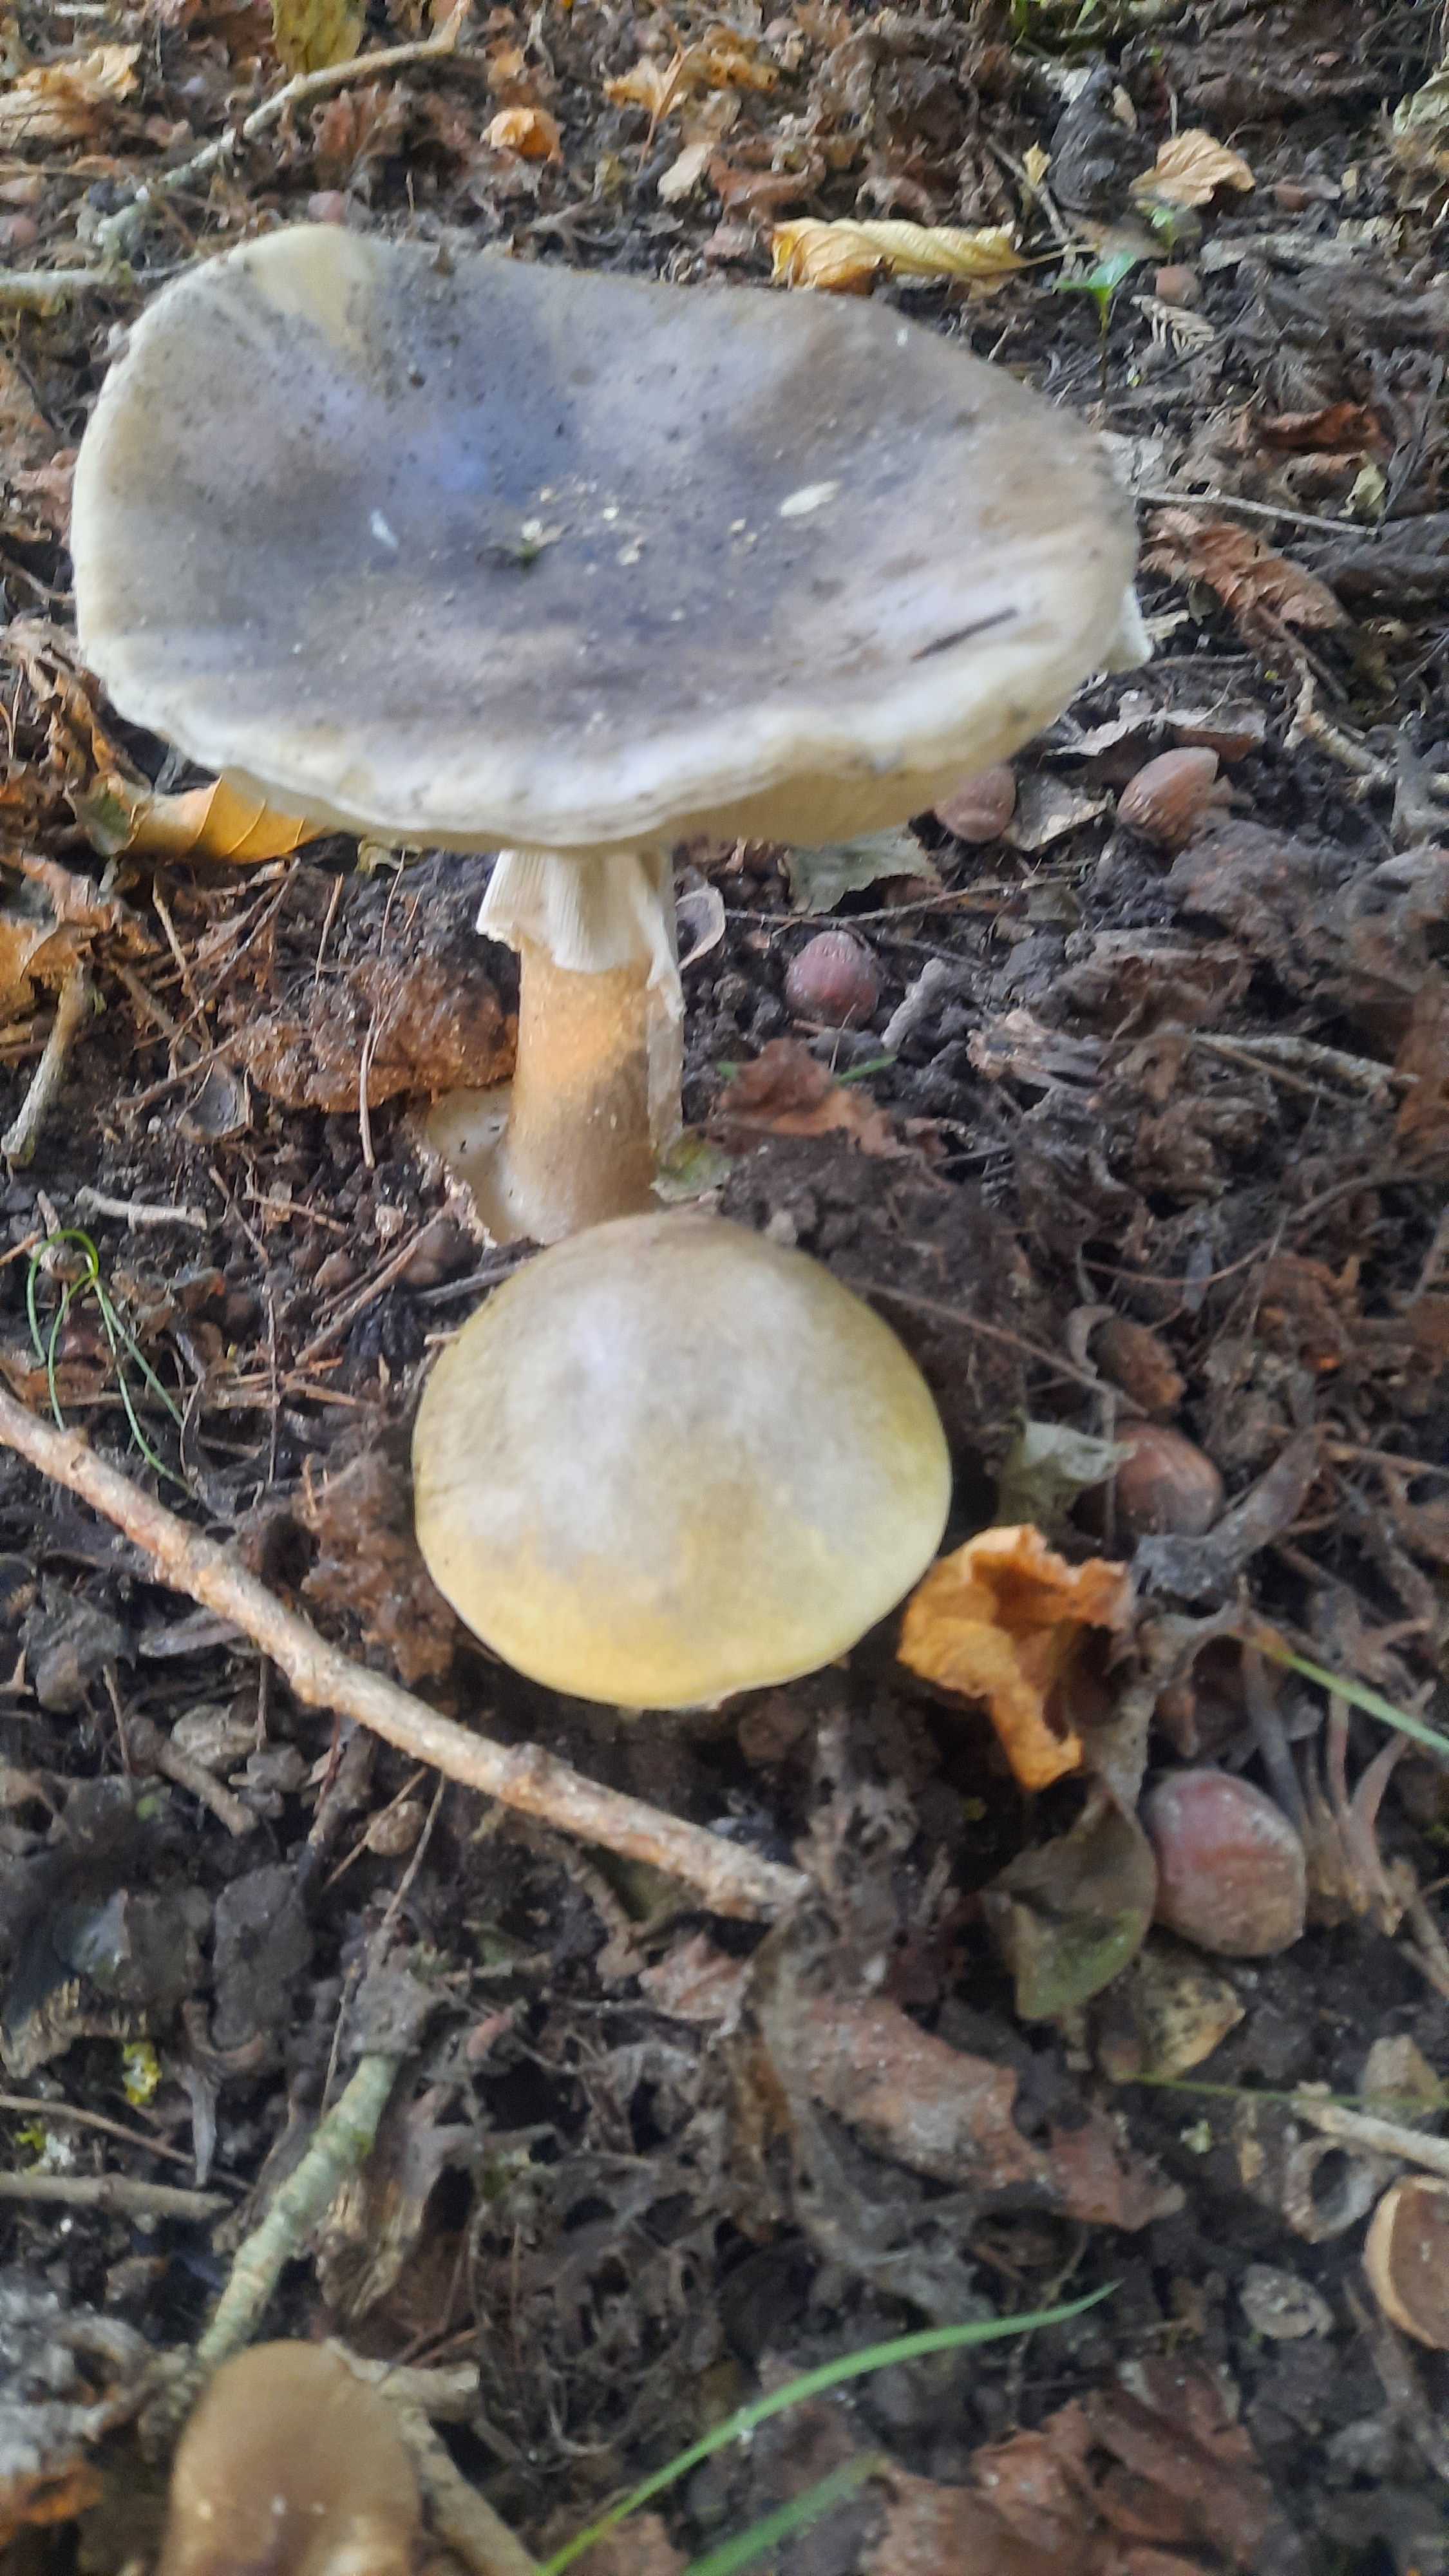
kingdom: Fungi
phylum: Basidiomycota
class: Agaricomycetes
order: Agaricales
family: Amanitaceae
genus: Amanita
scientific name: Amanita phalloides
